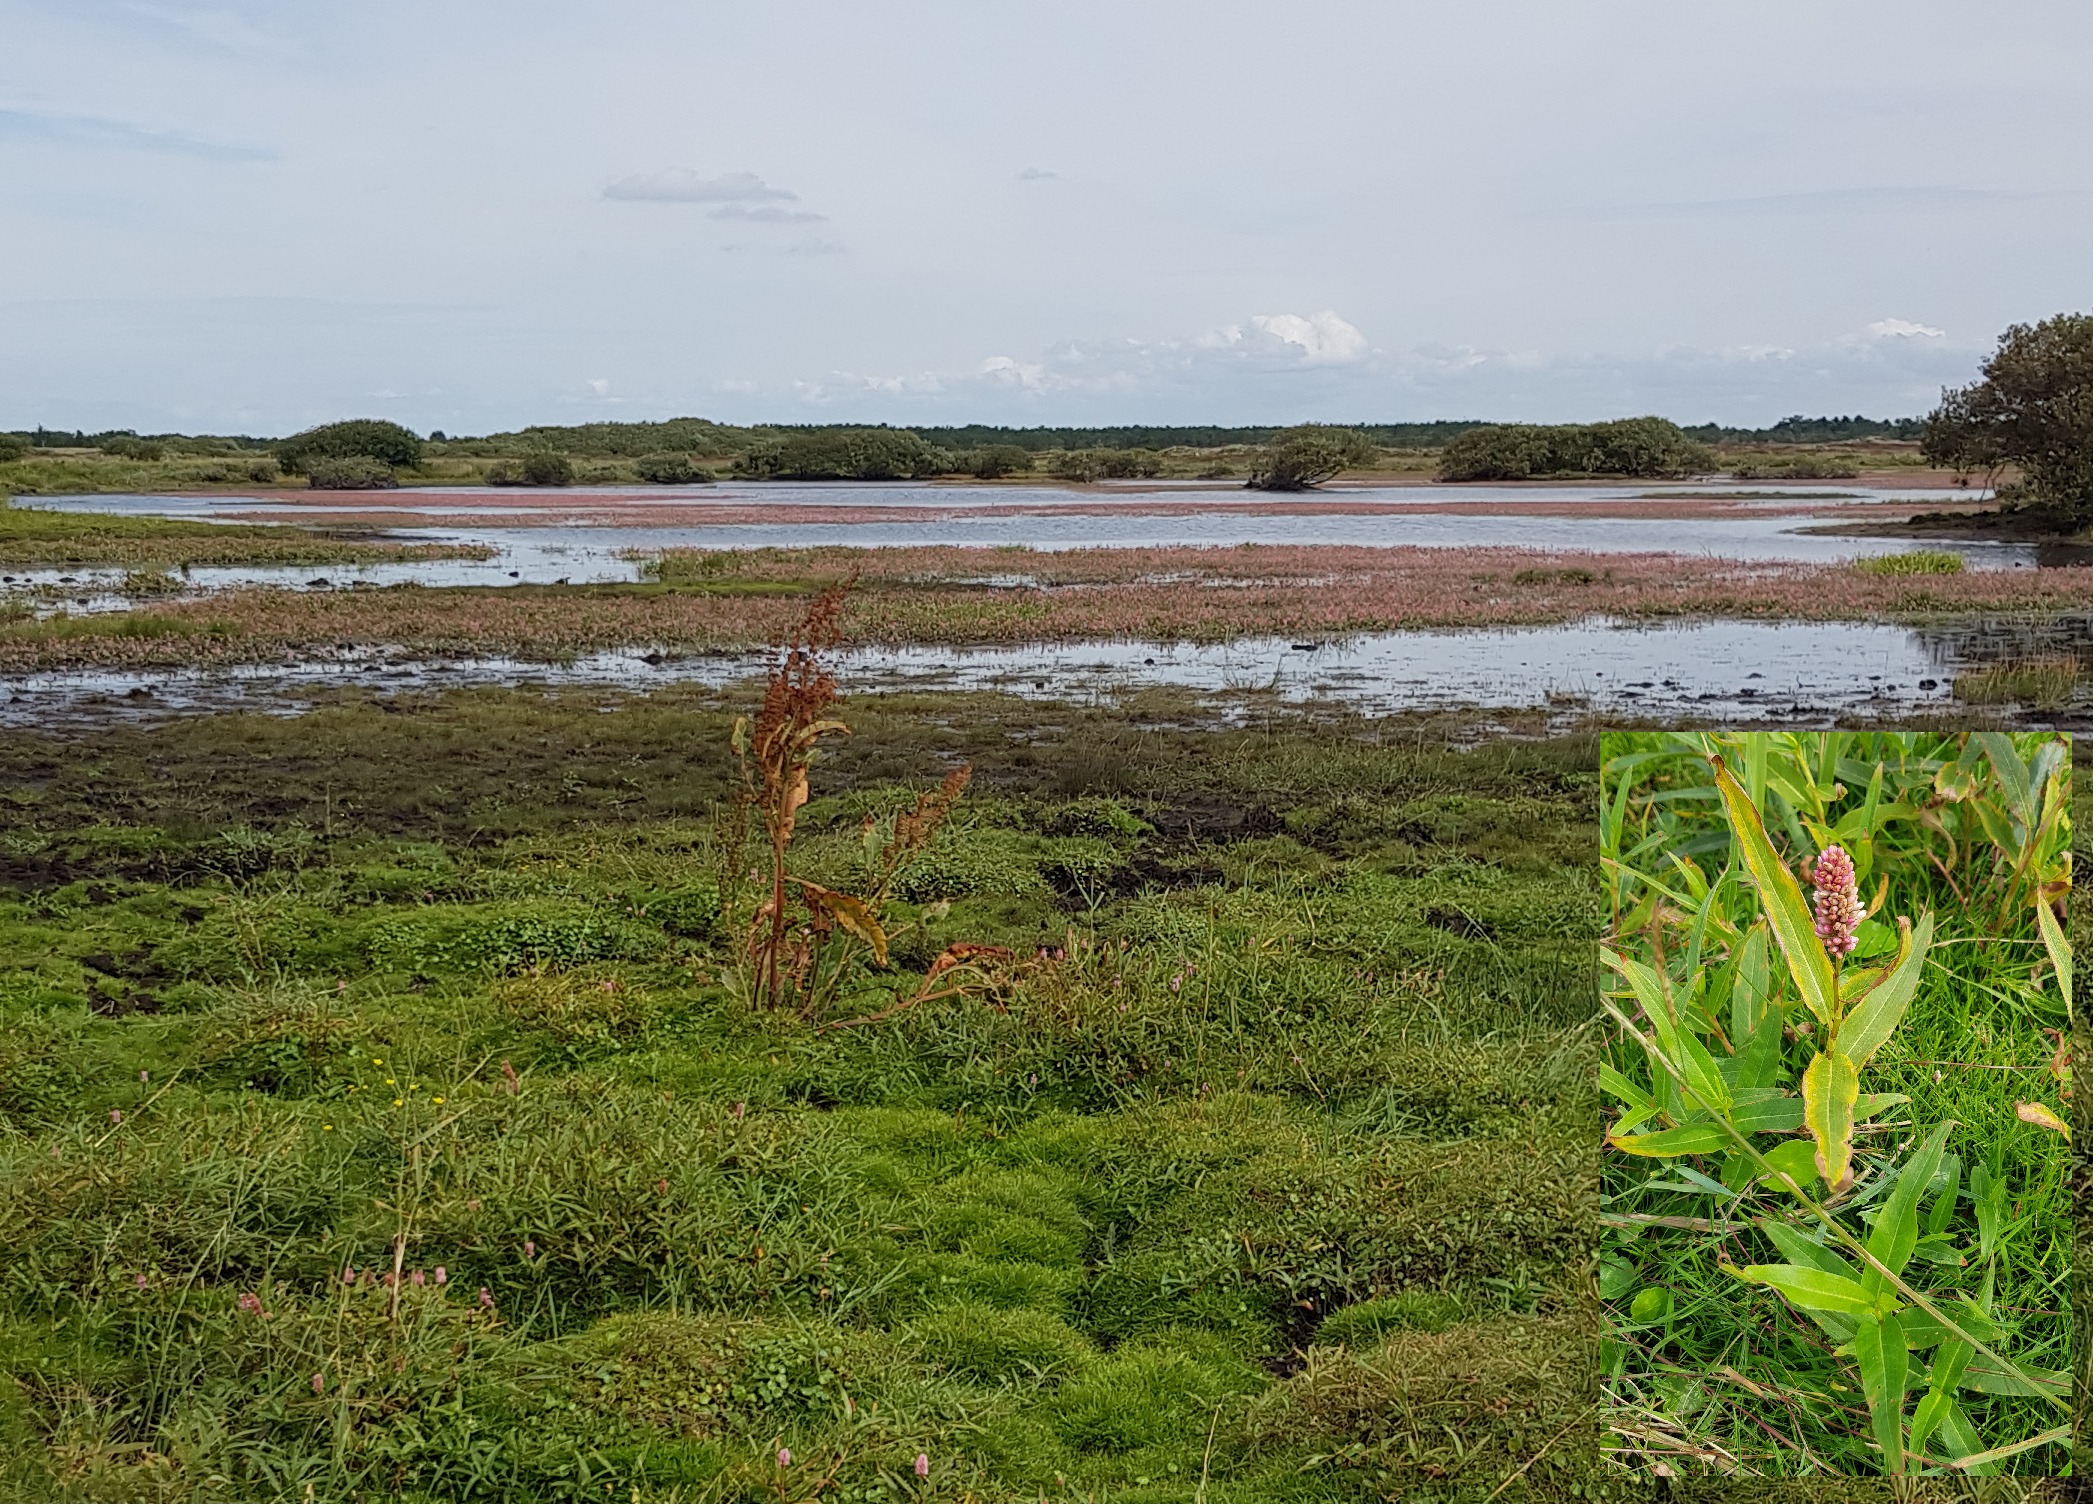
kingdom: Plantae
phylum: Tracheophyta
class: Magnoliopsida
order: Caryophyllales
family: Polygonaceae
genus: Persicaria
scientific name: Persicaria amphibia
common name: Vand-pileurt
